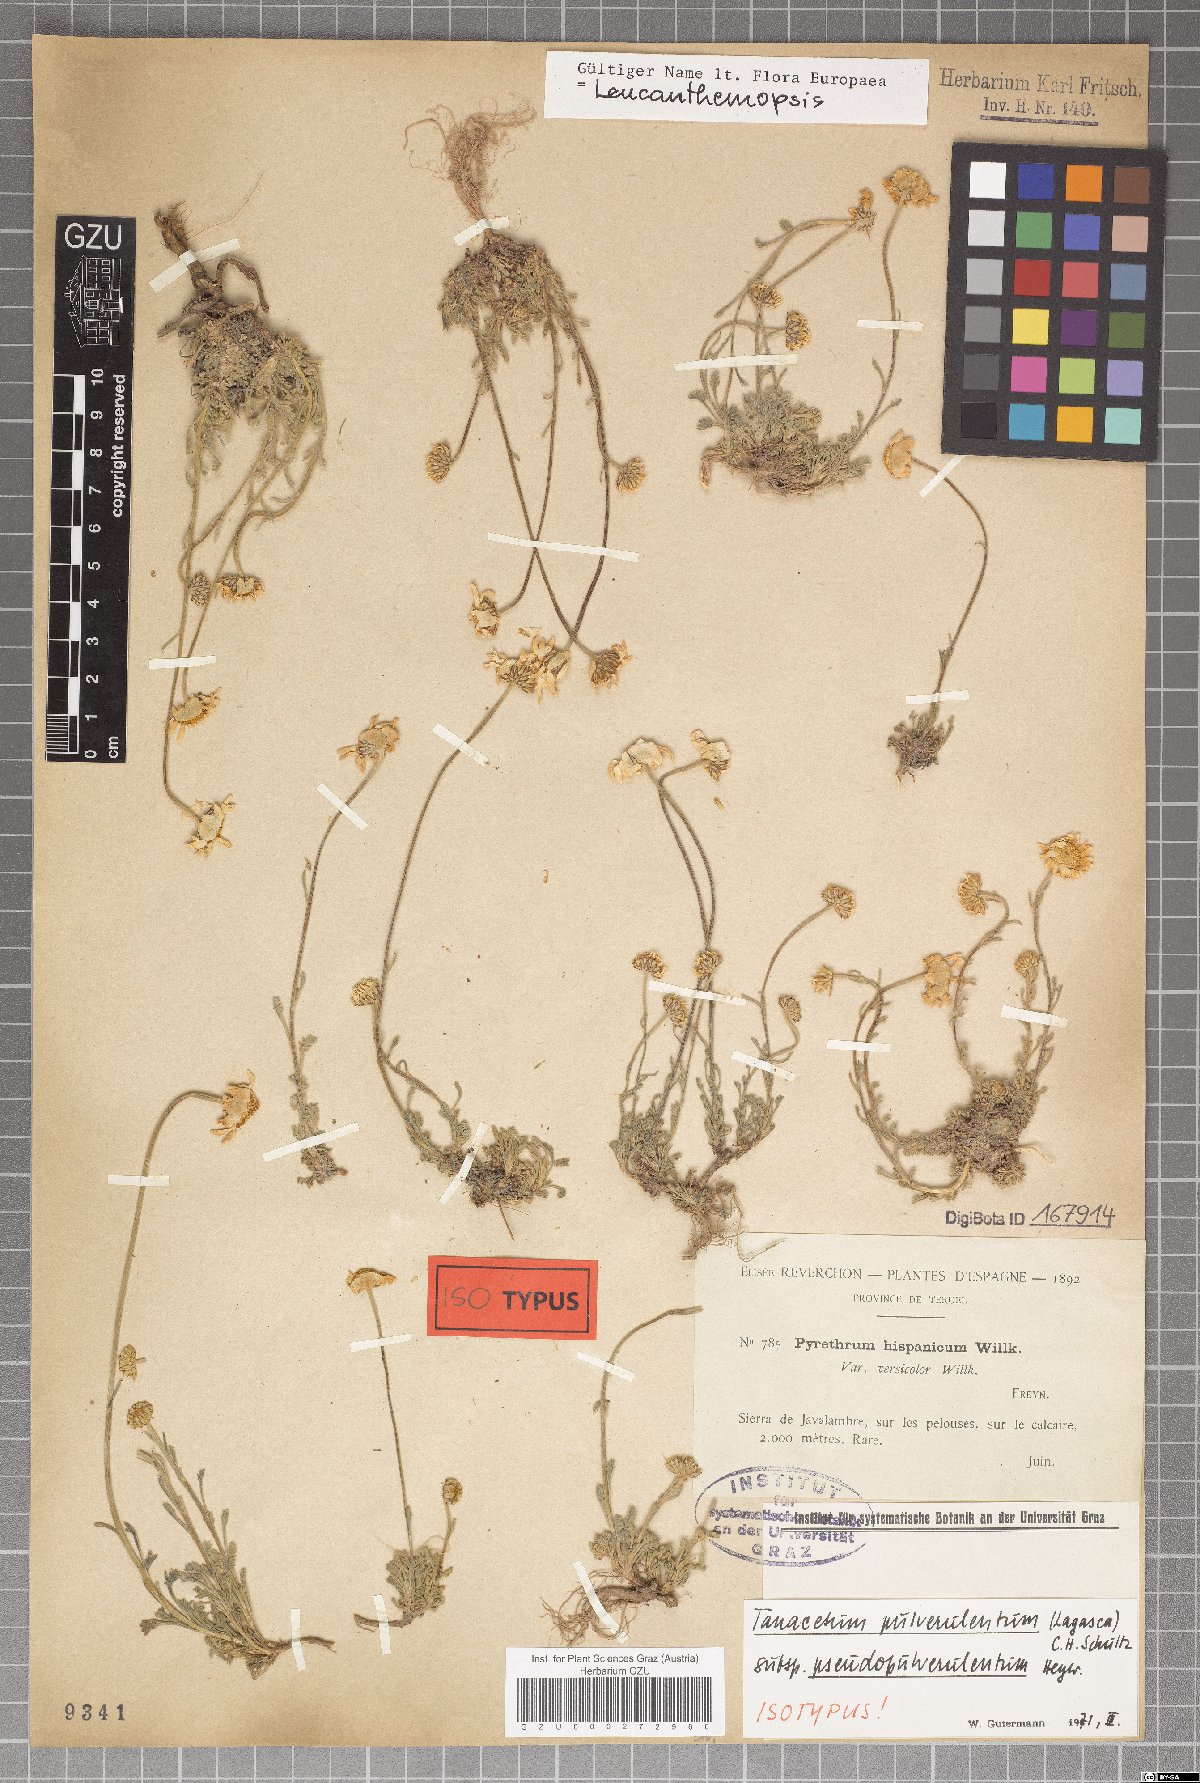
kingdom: Plantae
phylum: Tracheophyta
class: Magnoliopsida
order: Asterales
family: Asteraceae
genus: Leucanthemopsis
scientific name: Leucanthemopsis heywoodii
